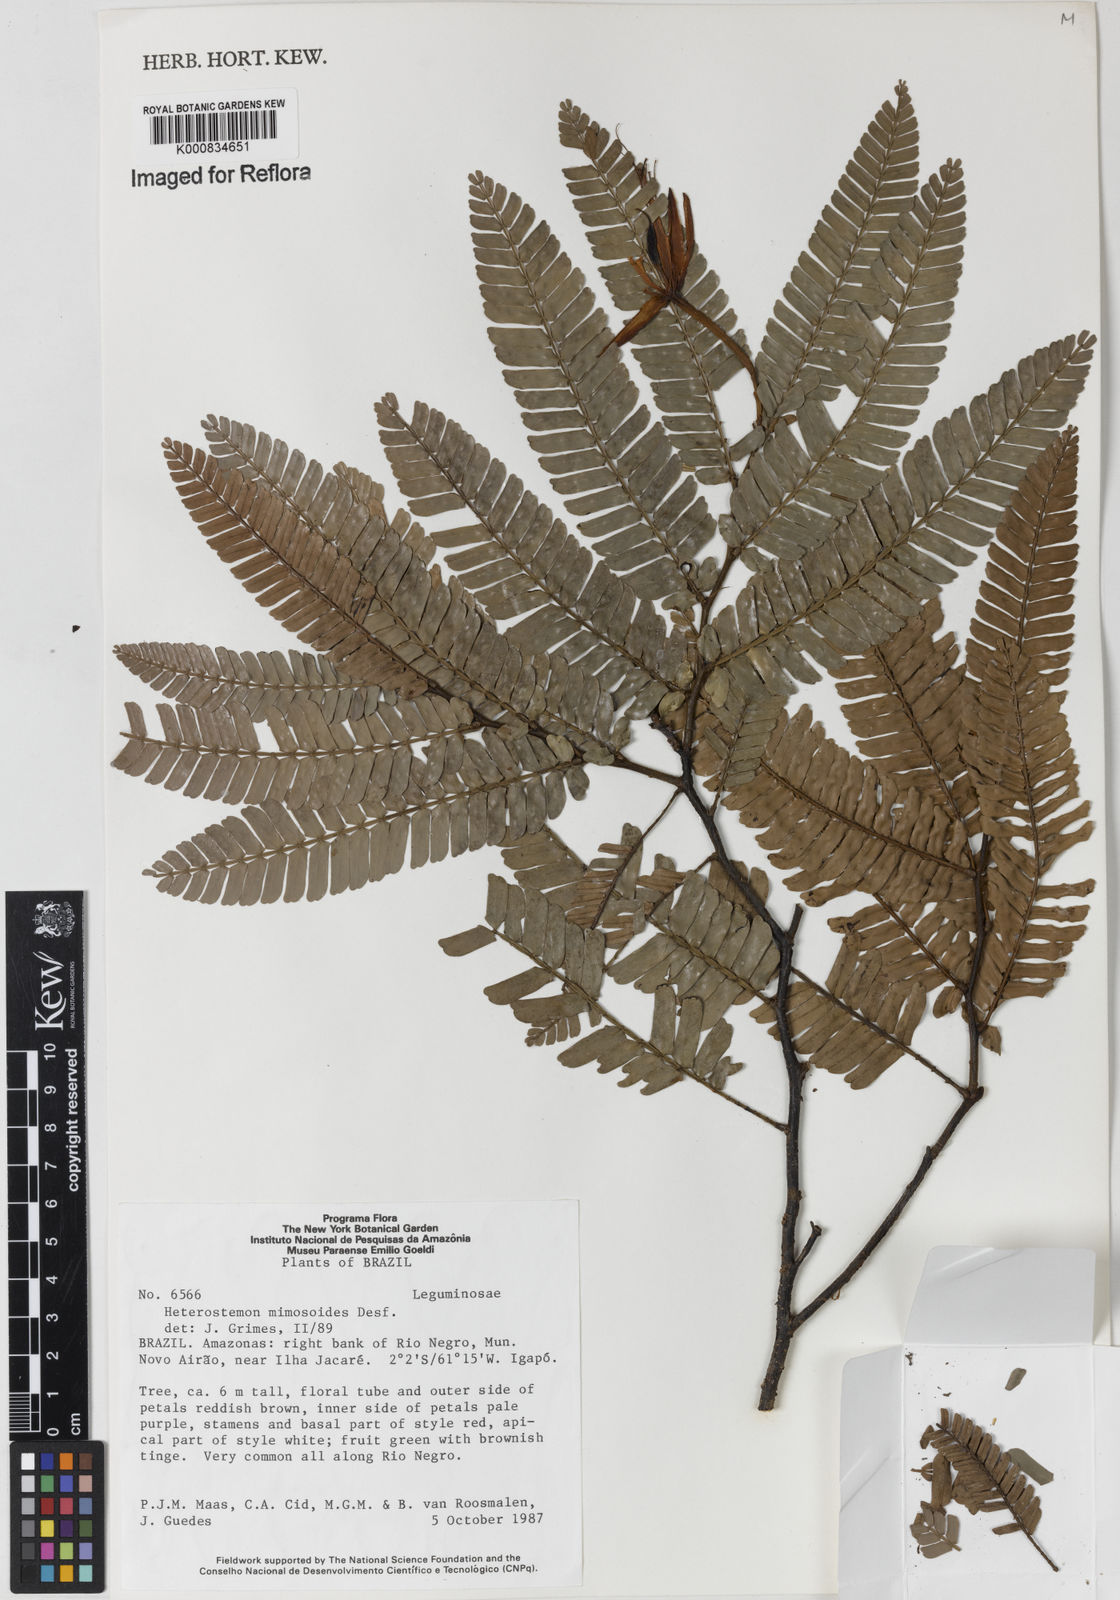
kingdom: Plantae
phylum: Tracheophyta
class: Magnoliopsida
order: Fabales
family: Fabaceae
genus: Heterostemon
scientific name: Heterostemon mimosoides
